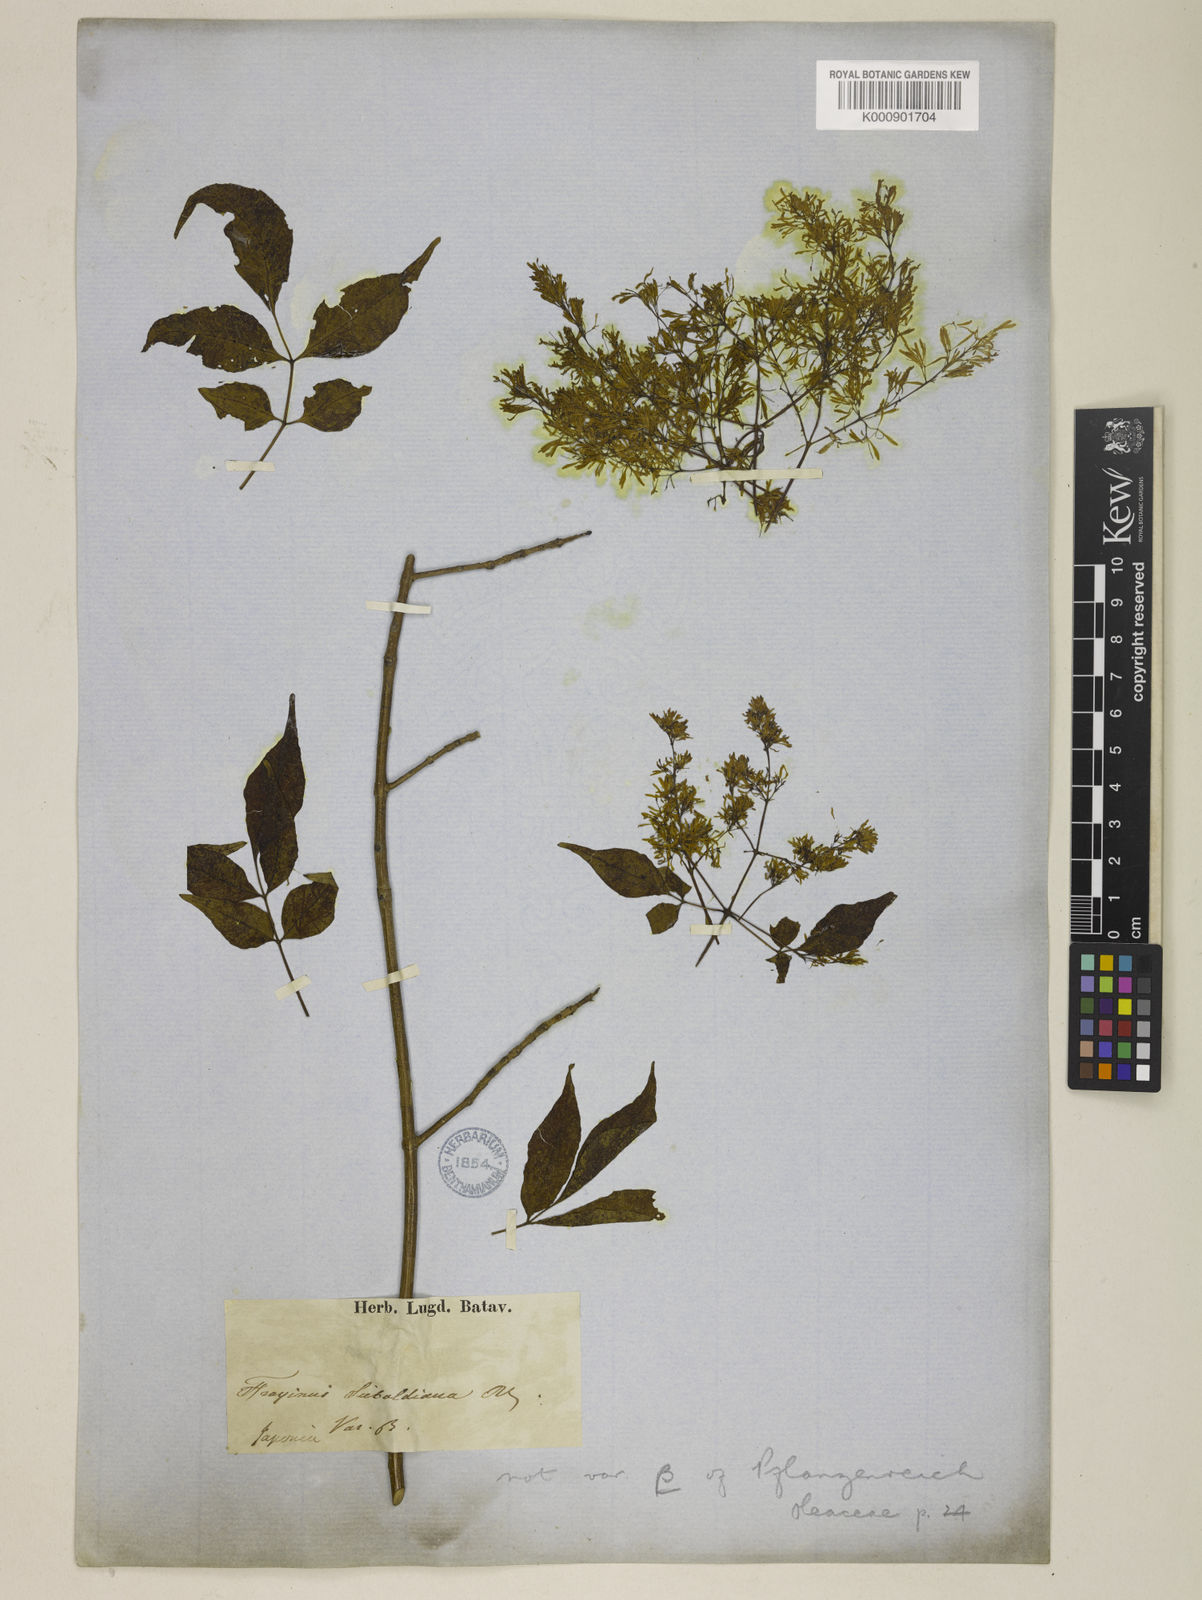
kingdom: Plantae
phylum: Tracheophyta
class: Magnoliopsida
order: Lamiales
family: Oleaceae
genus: Fraxinus
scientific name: Fraxinus sieboldiana
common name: Chinese flowering ash
